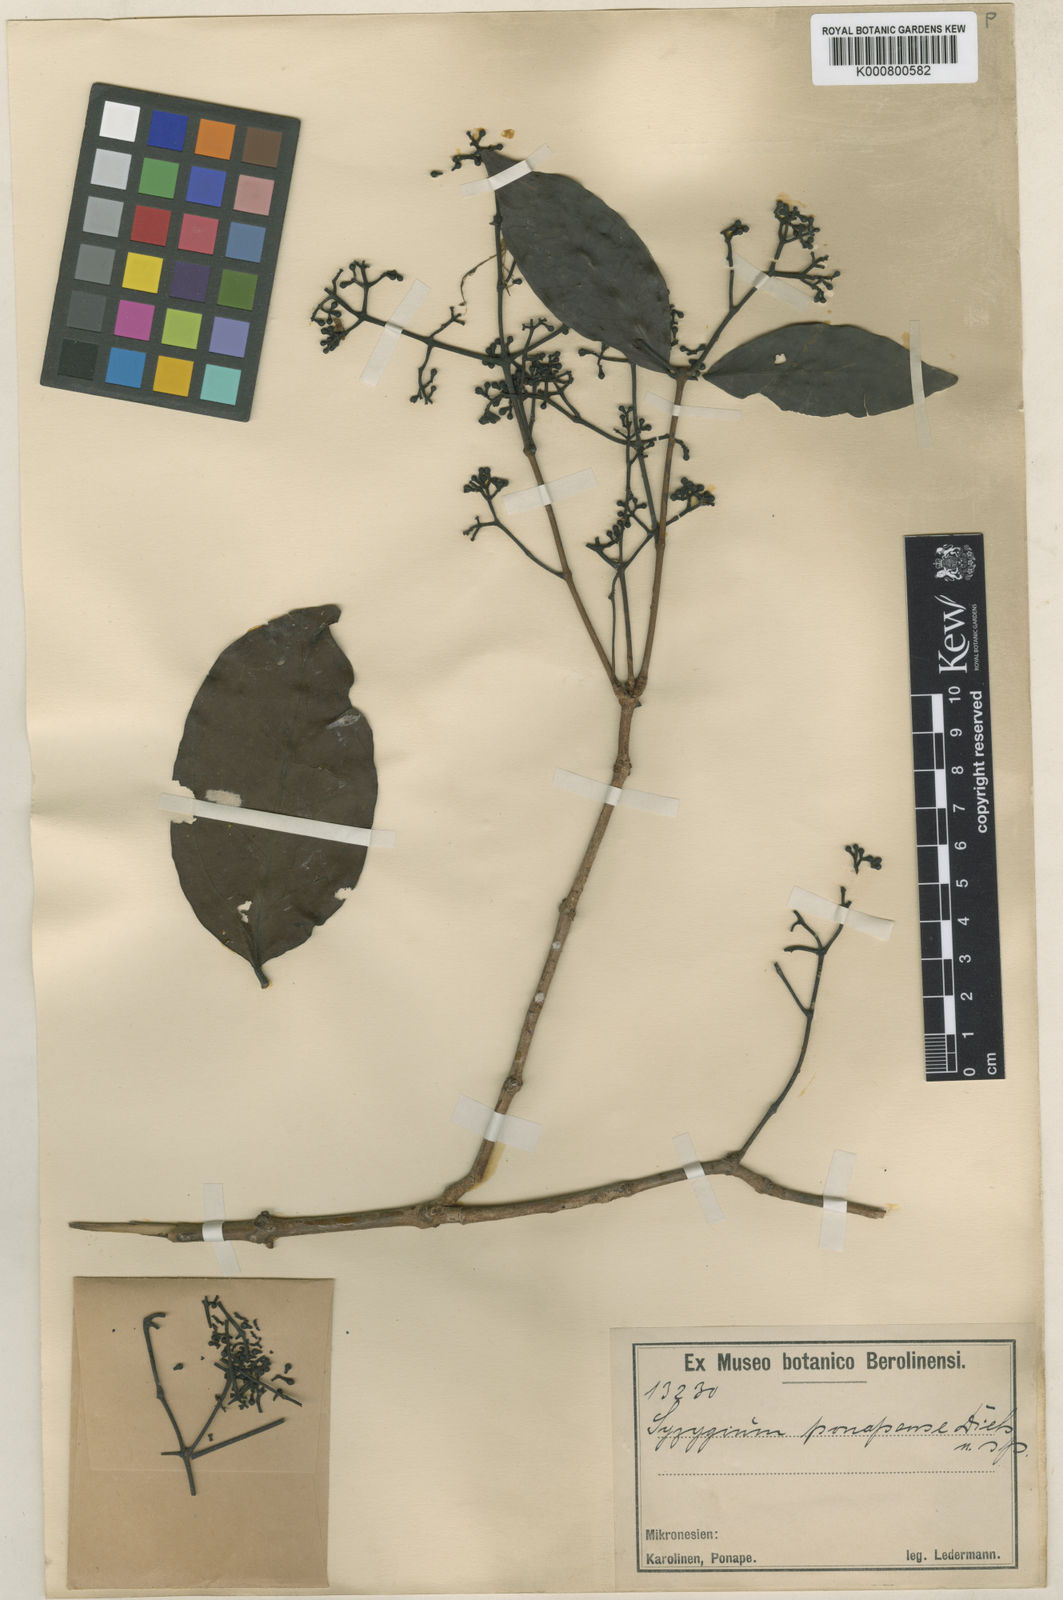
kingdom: Plantae
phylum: Tracheophyta
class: Magnoliopsida
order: Myrtales
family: Myrtaceae
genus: Syzygium
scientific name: Syzygium carolinense
